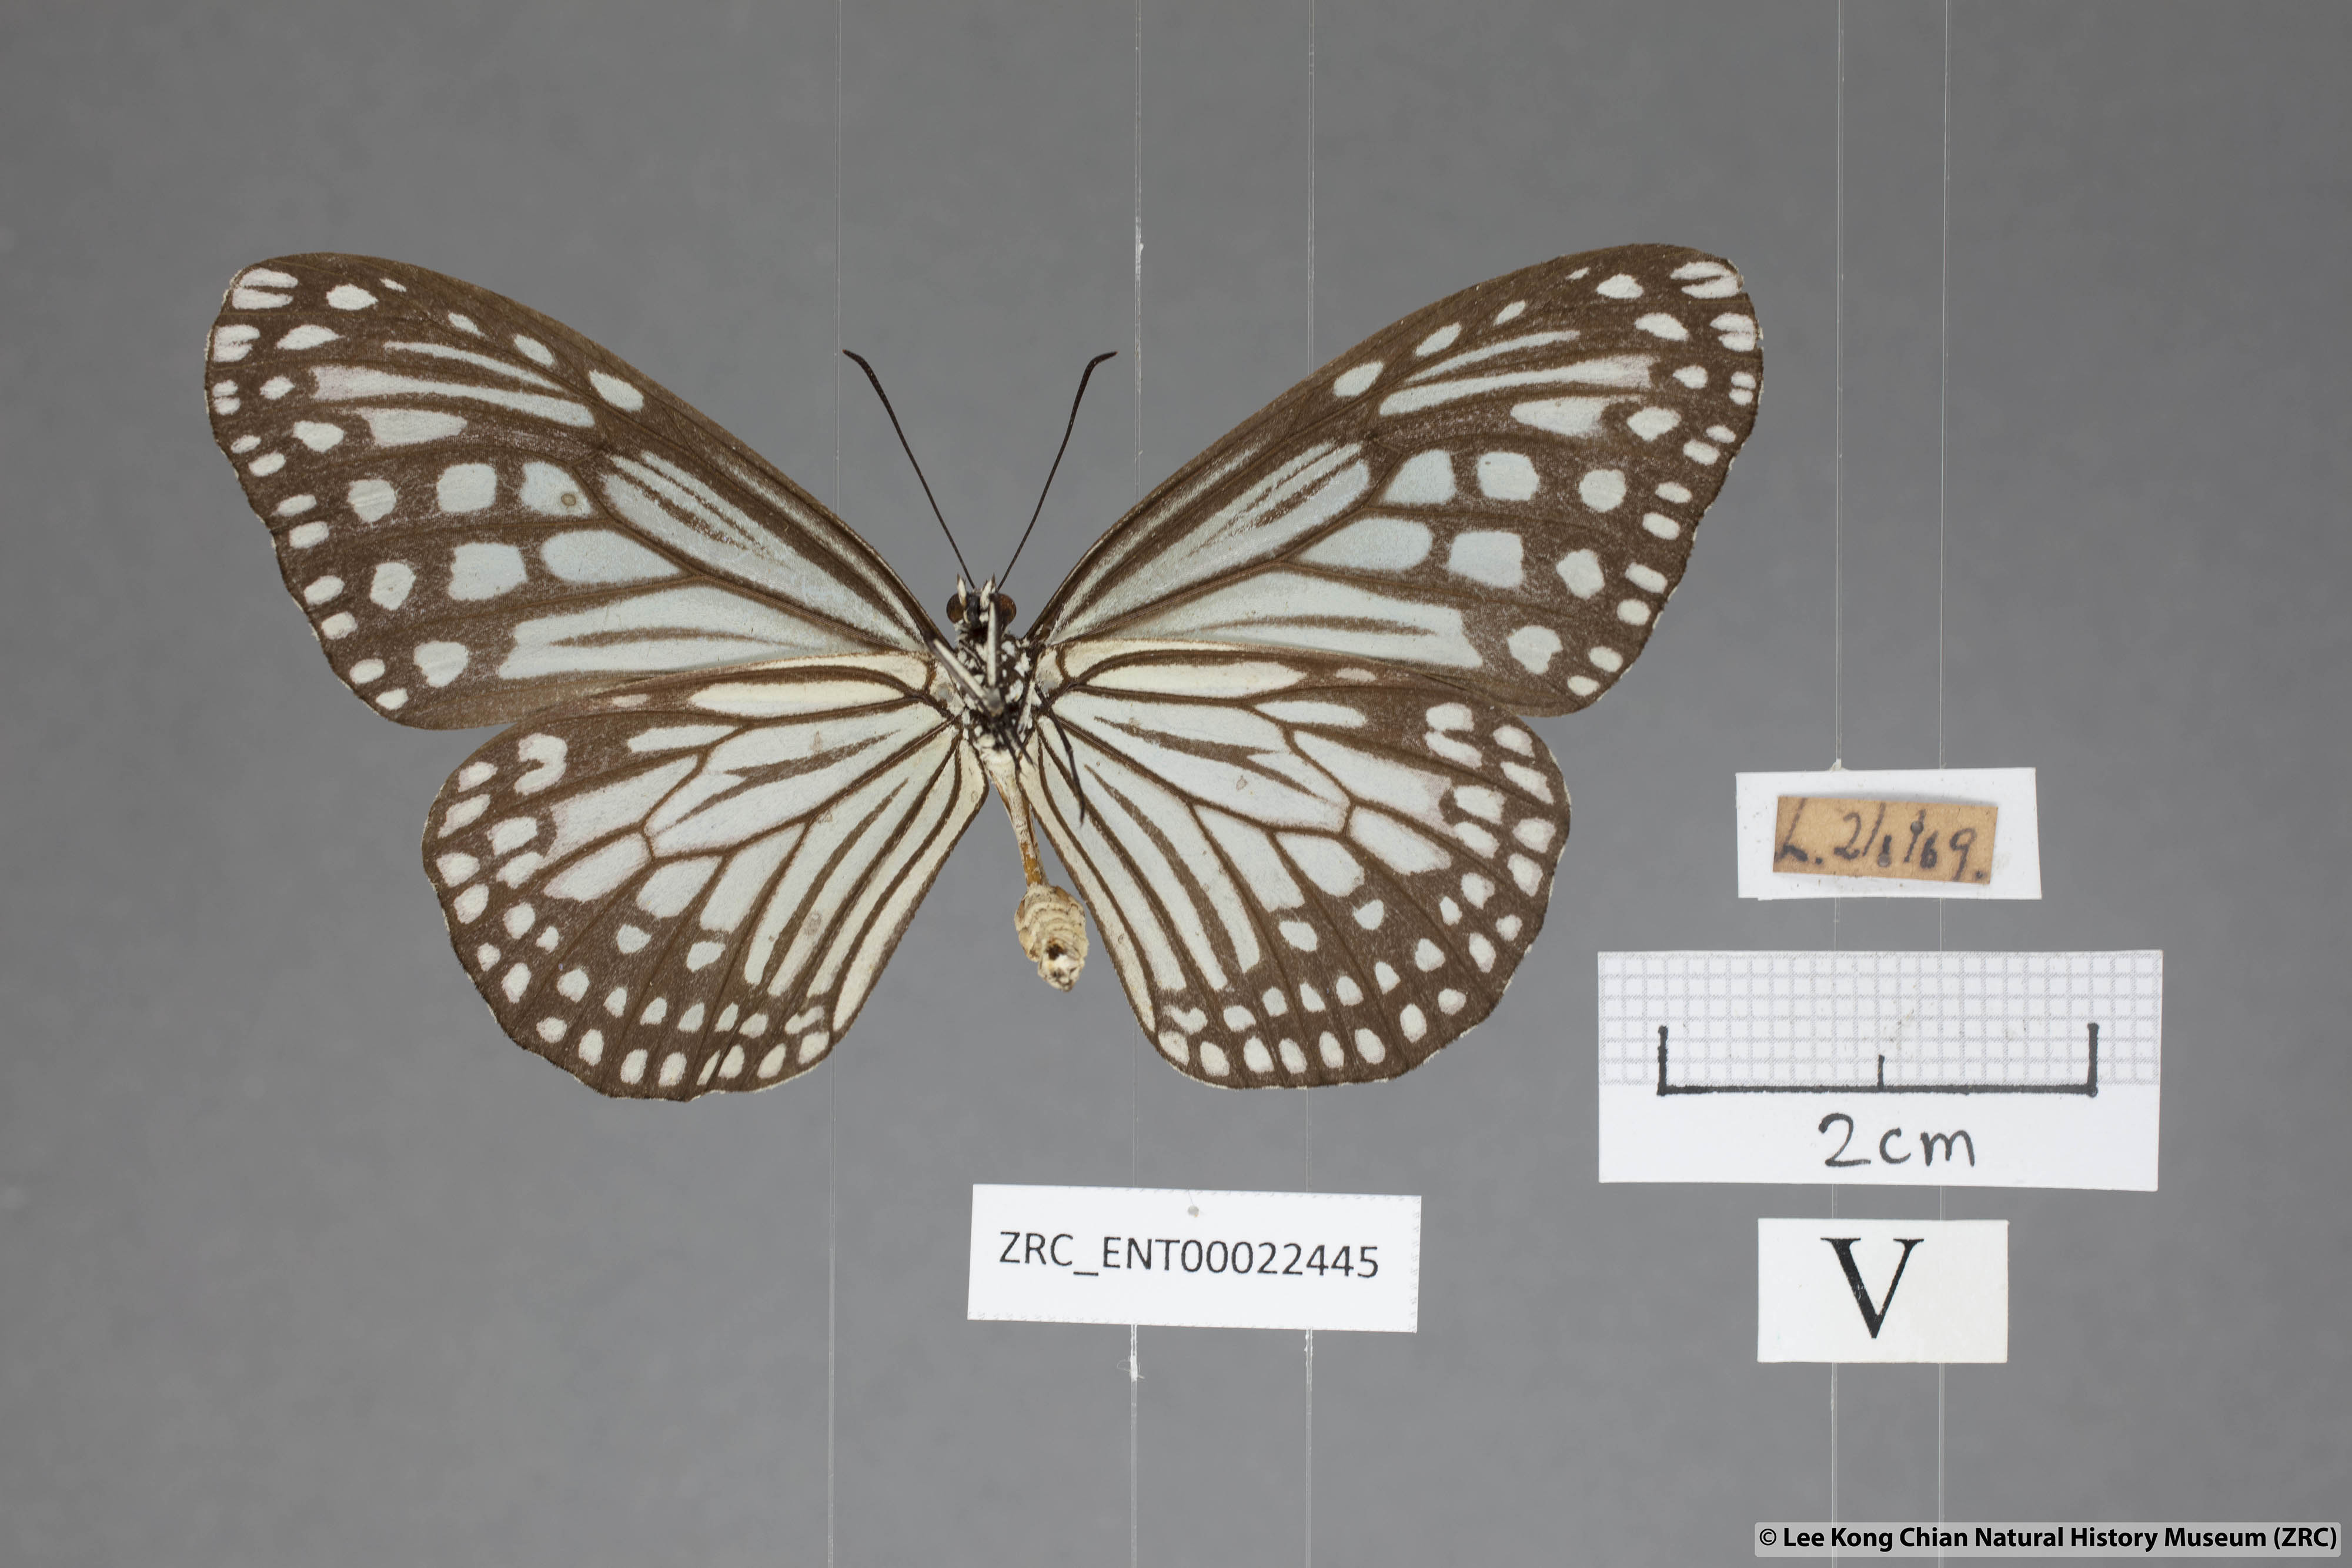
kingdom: Animalia
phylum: Arthropoda
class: Insecta
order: Lepidoptera
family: Nymphalidae
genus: Parantica
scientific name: Parantica aglea
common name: Glassy tiger
